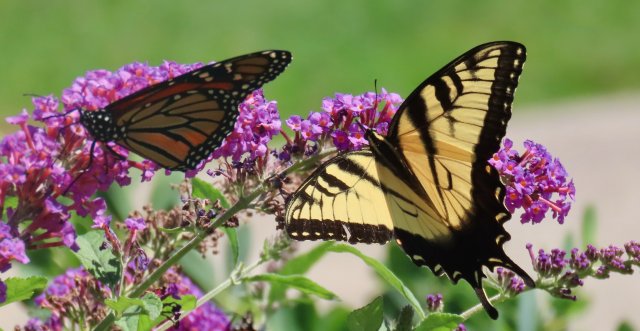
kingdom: Animalia
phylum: Arthropoda
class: Insecta
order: Lepidoptera
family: Papilionidae
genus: Pterourus
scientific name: Pterourus glaucus
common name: Eastern Tiger Swallowtail
